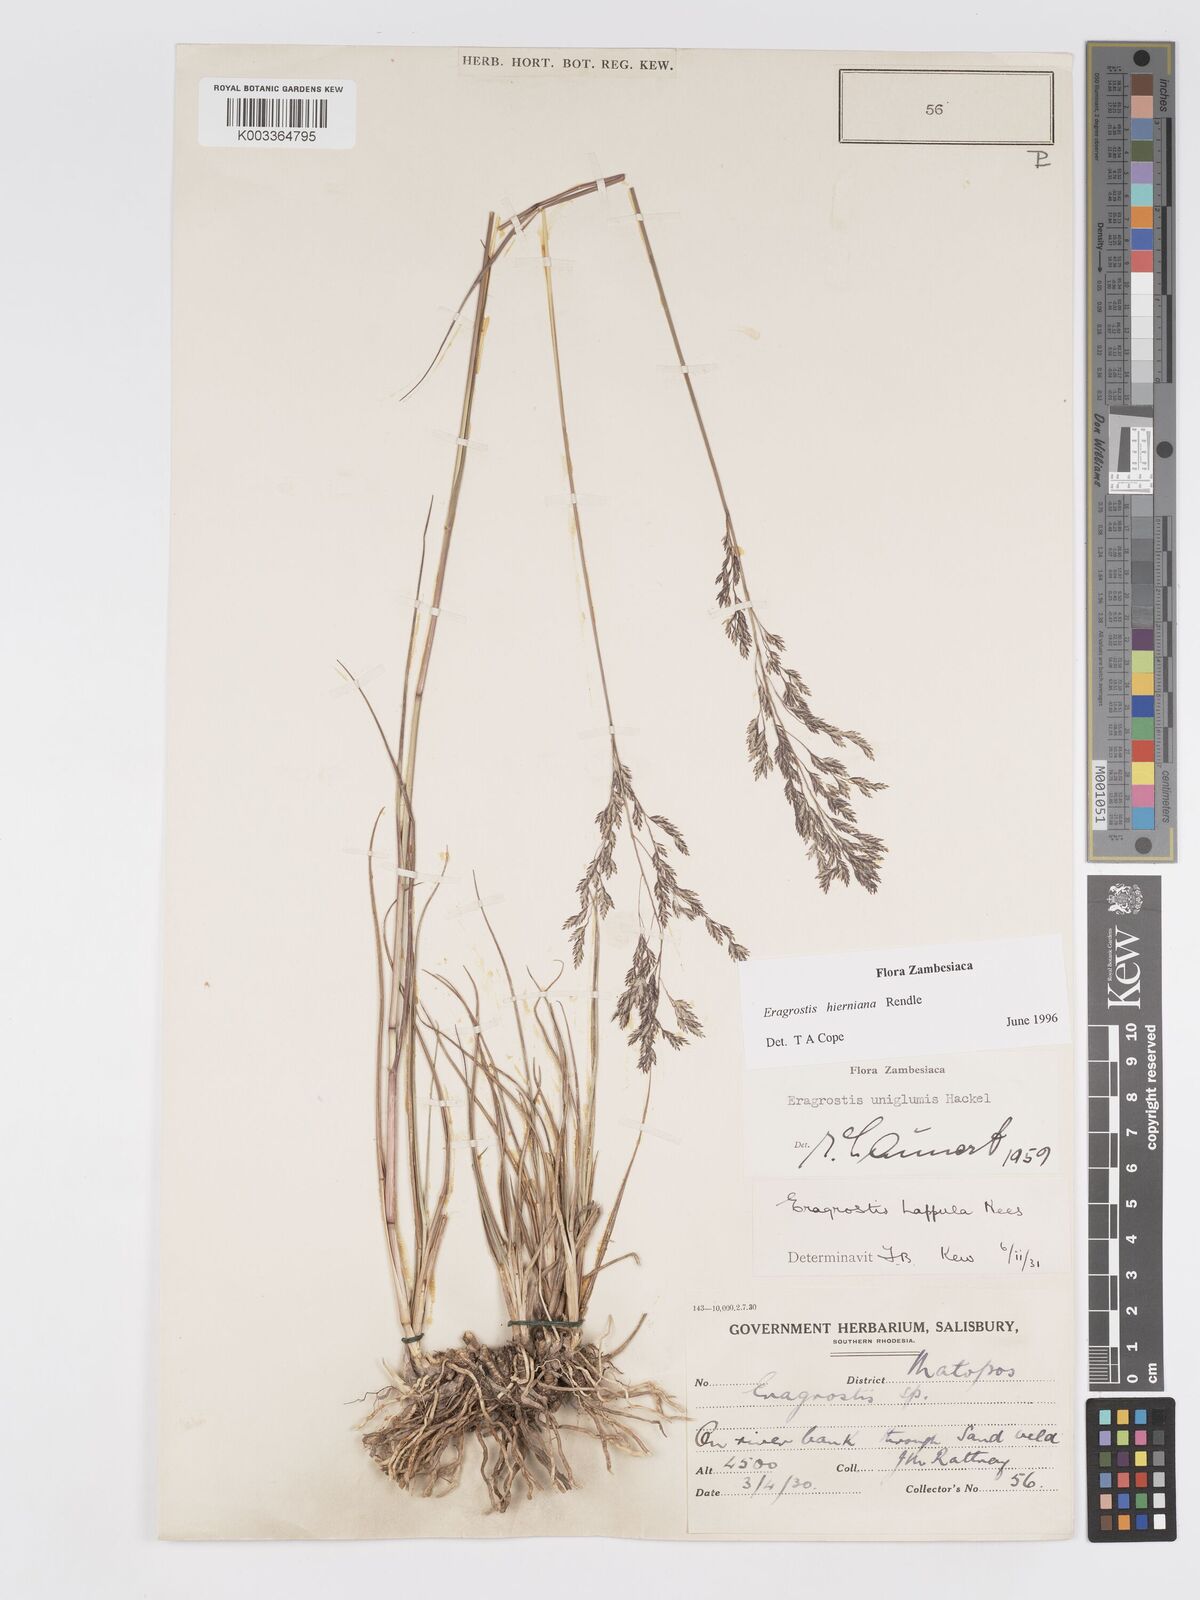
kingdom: Plantae
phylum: Tracheophyta
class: Liliopsida
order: Poales
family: Poaceae
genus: Eragrostis
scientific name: Eragrostis hierniana
